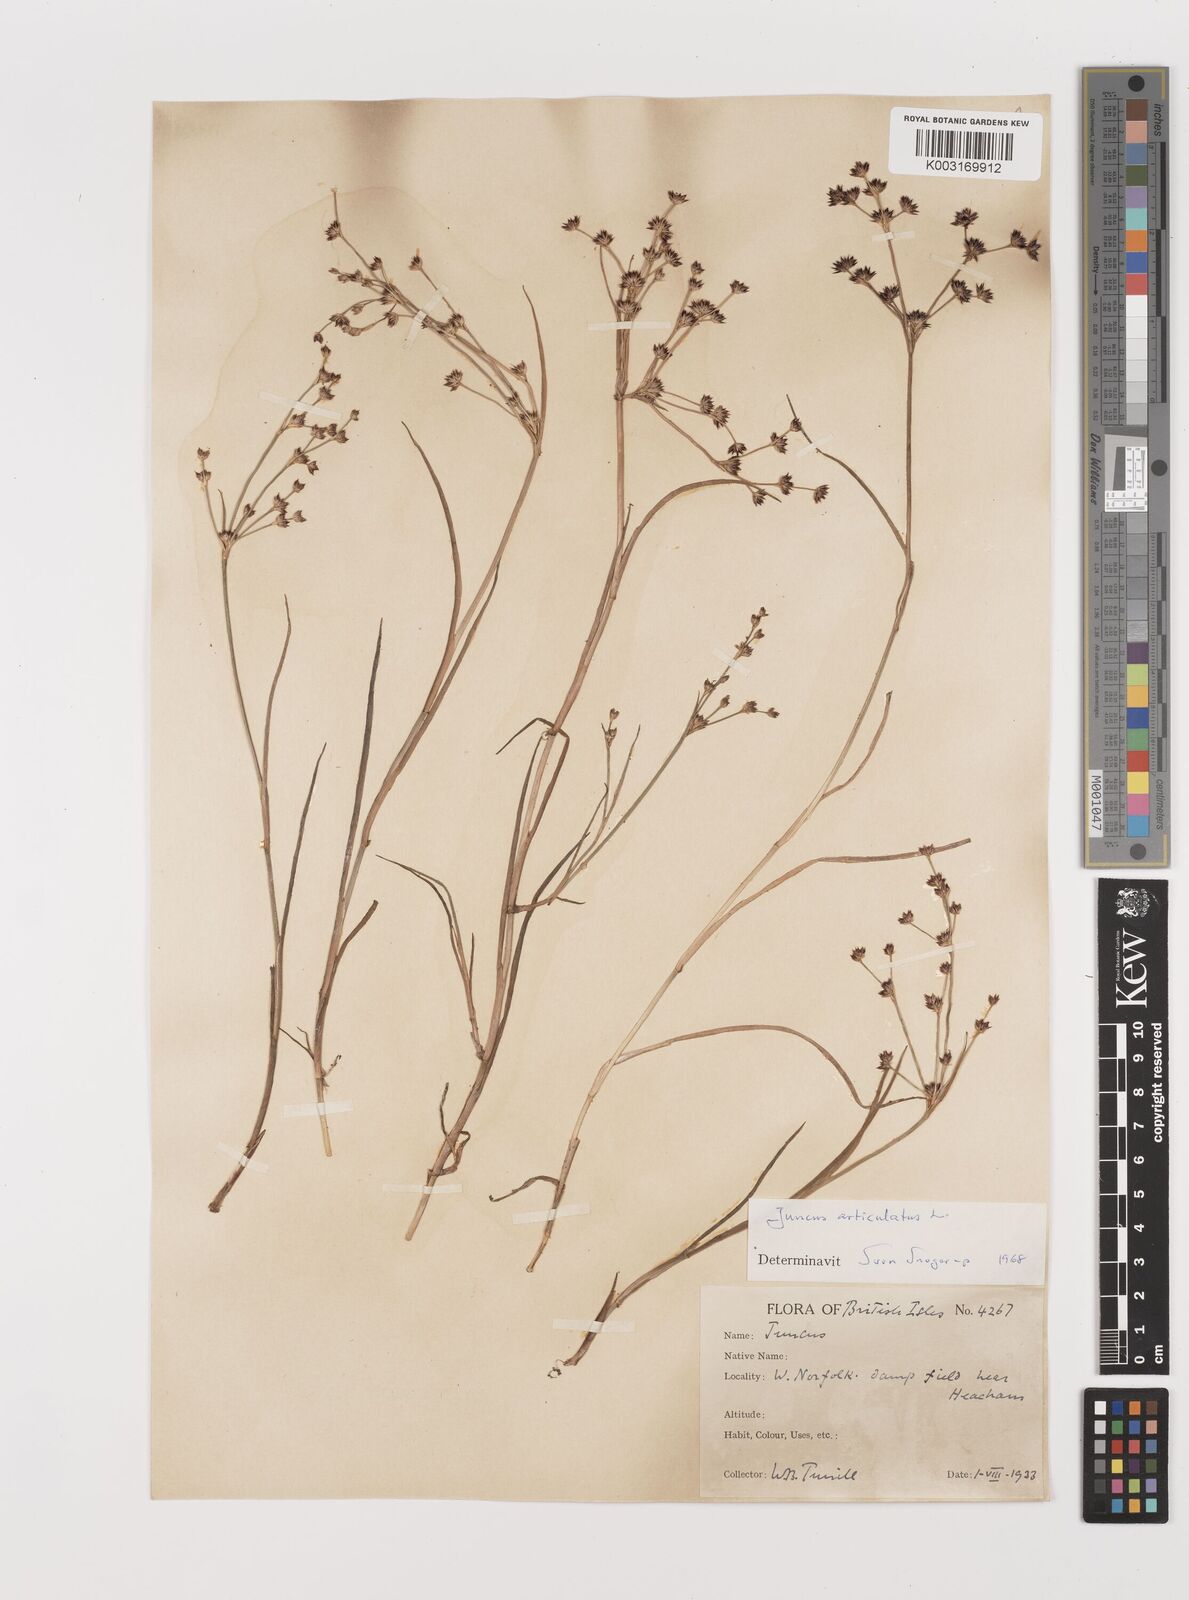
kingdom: Plantae
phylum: Tracheophyta
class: Liliopsida
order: Poales
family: Juncaceae
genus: Juncus
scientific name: Juncus articulatus
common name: Jointed rush
